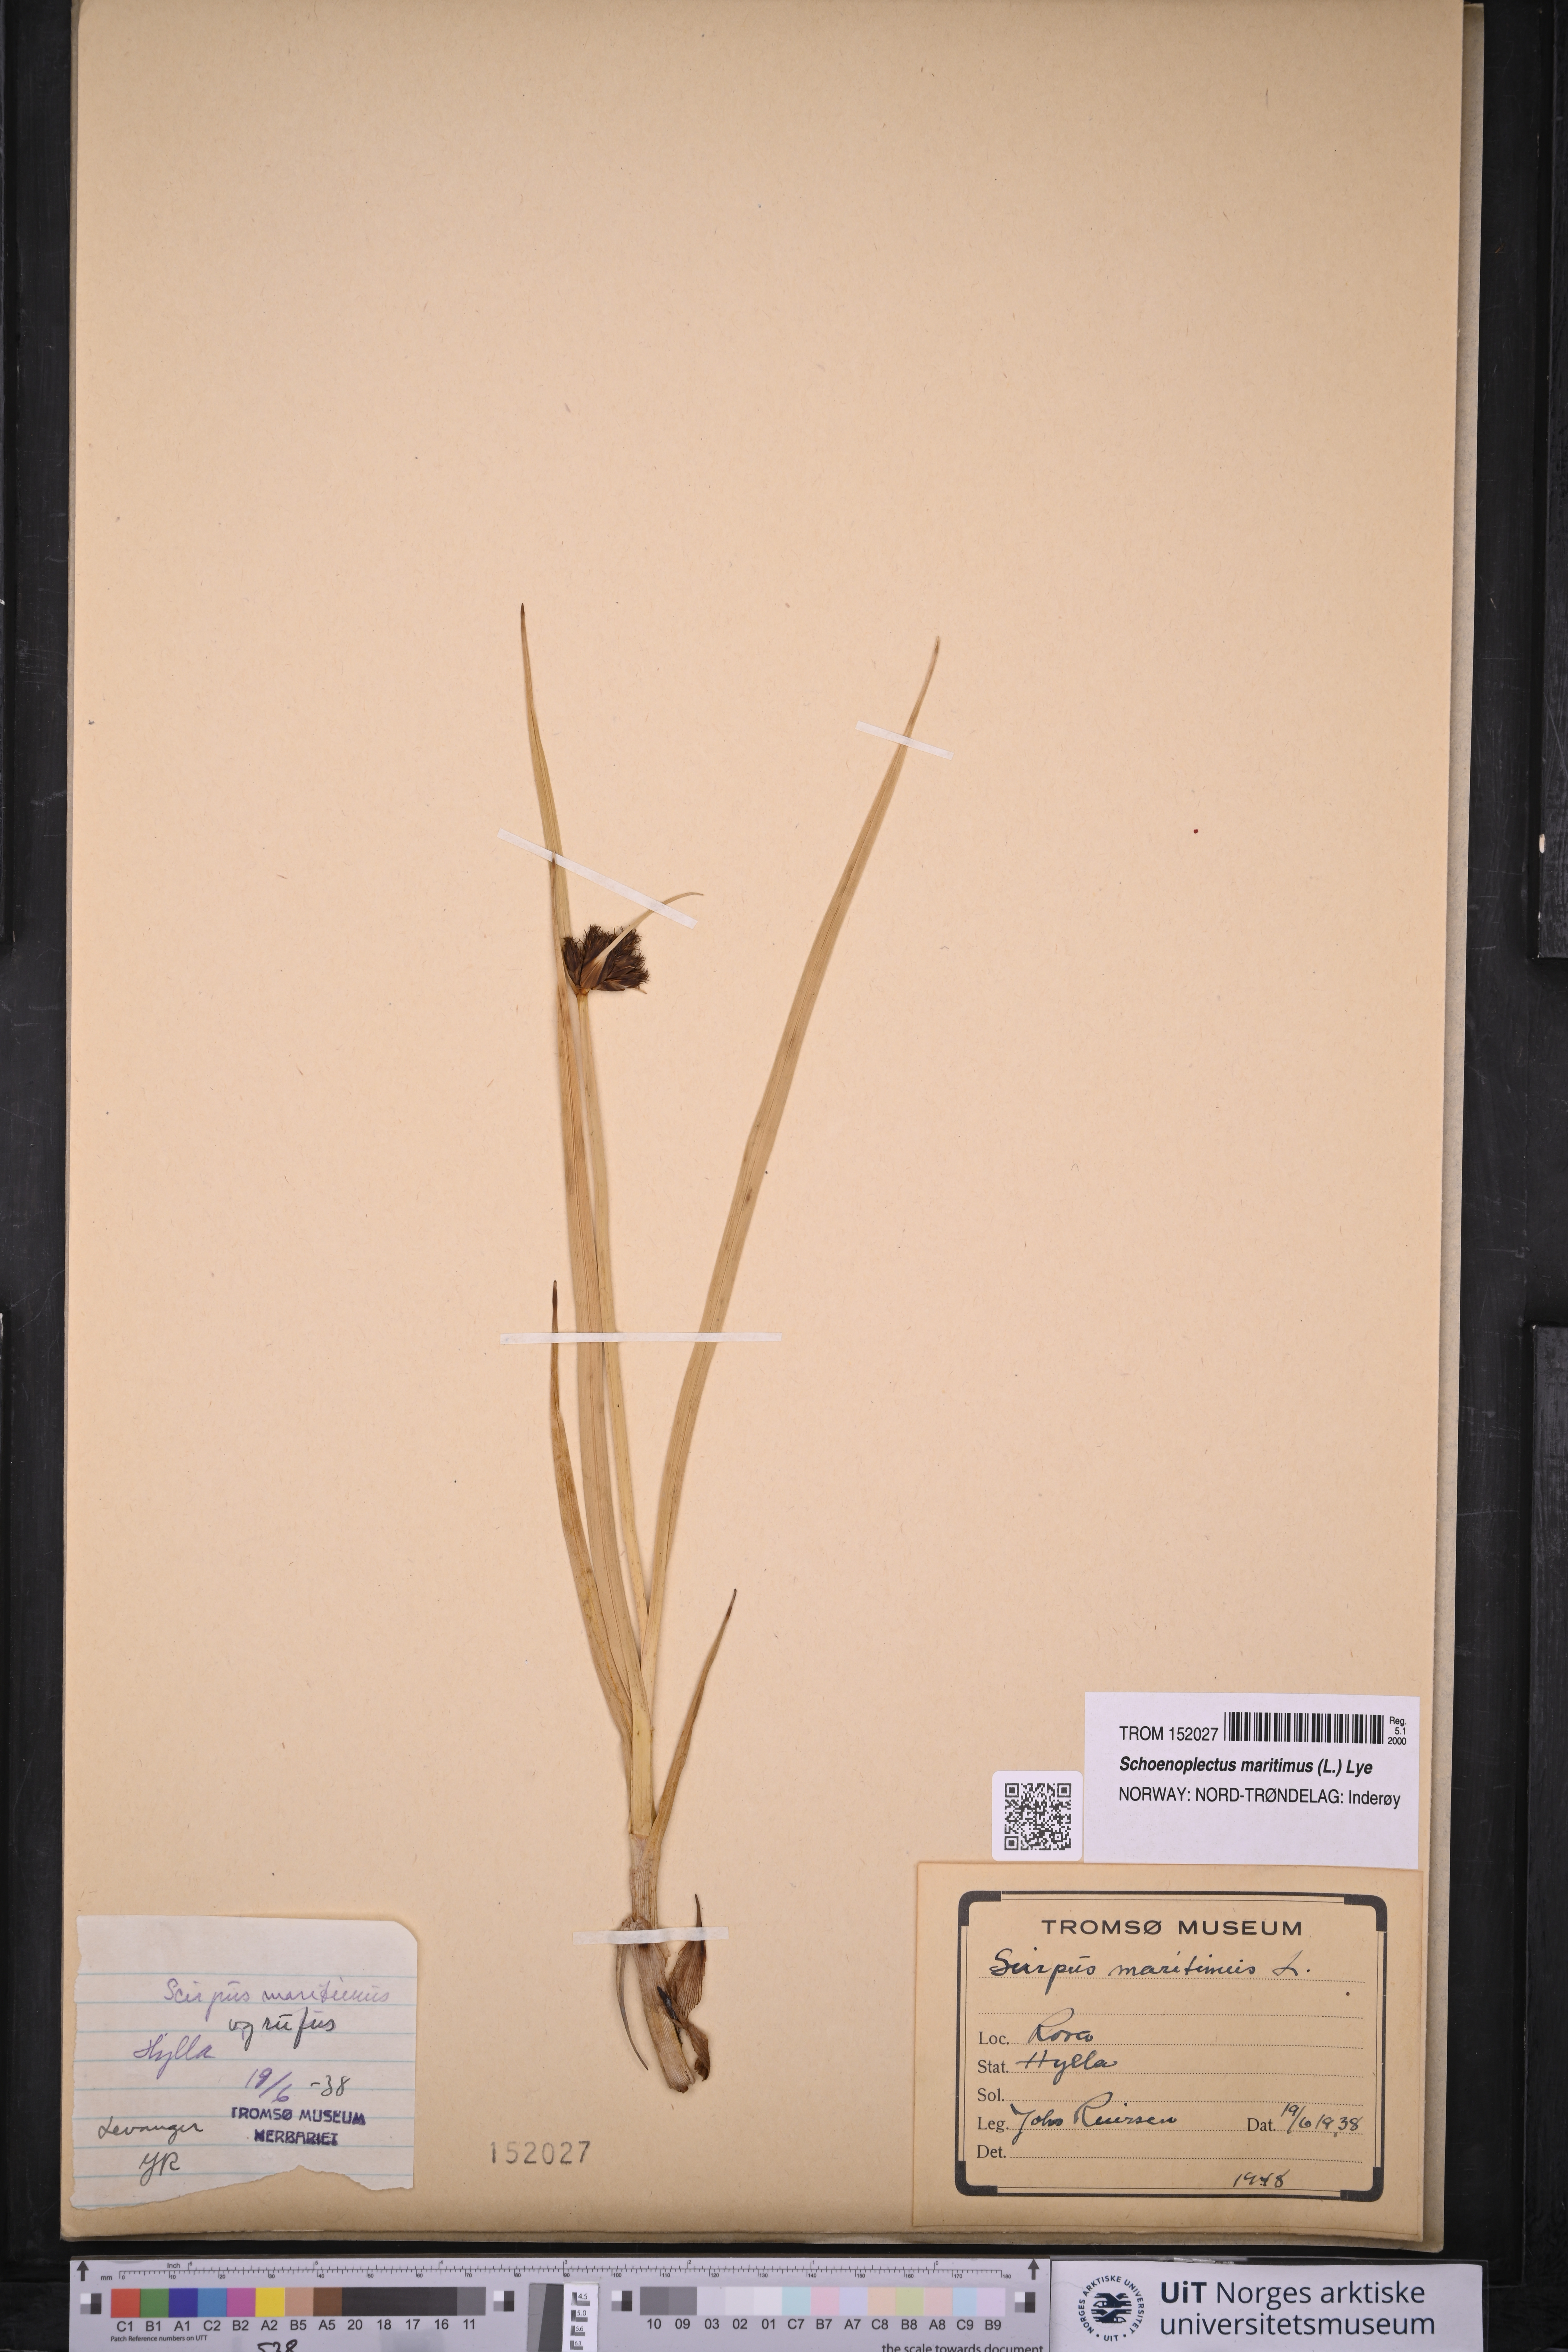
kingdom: Plantae
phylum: Tracheophyta
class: Liliopsida
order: Poales
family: Cyperaceae
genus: Bolboschoenus
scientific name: Bolboschoenus maritimus
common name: Sea club-rush
